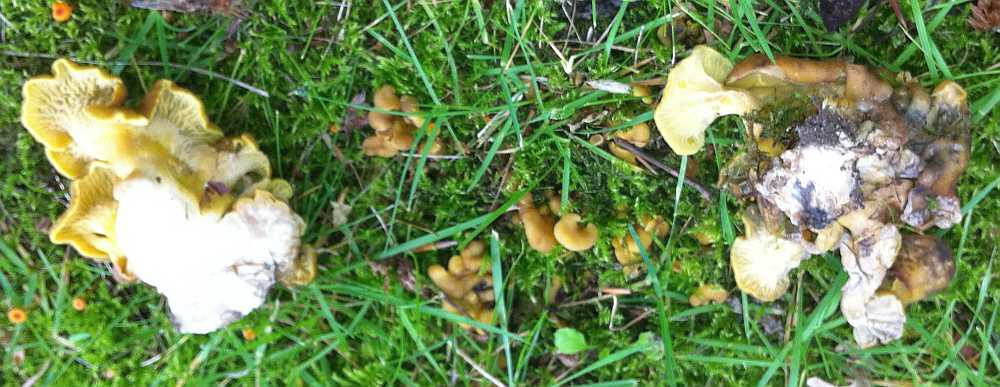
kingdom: Fungi
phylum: Basidiomycota
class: Agaricomycetes
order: Cantharellales
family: Hydnaceae
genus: Craterellus
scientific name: Craterellus tubaeformis
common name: tragt-kantarel
